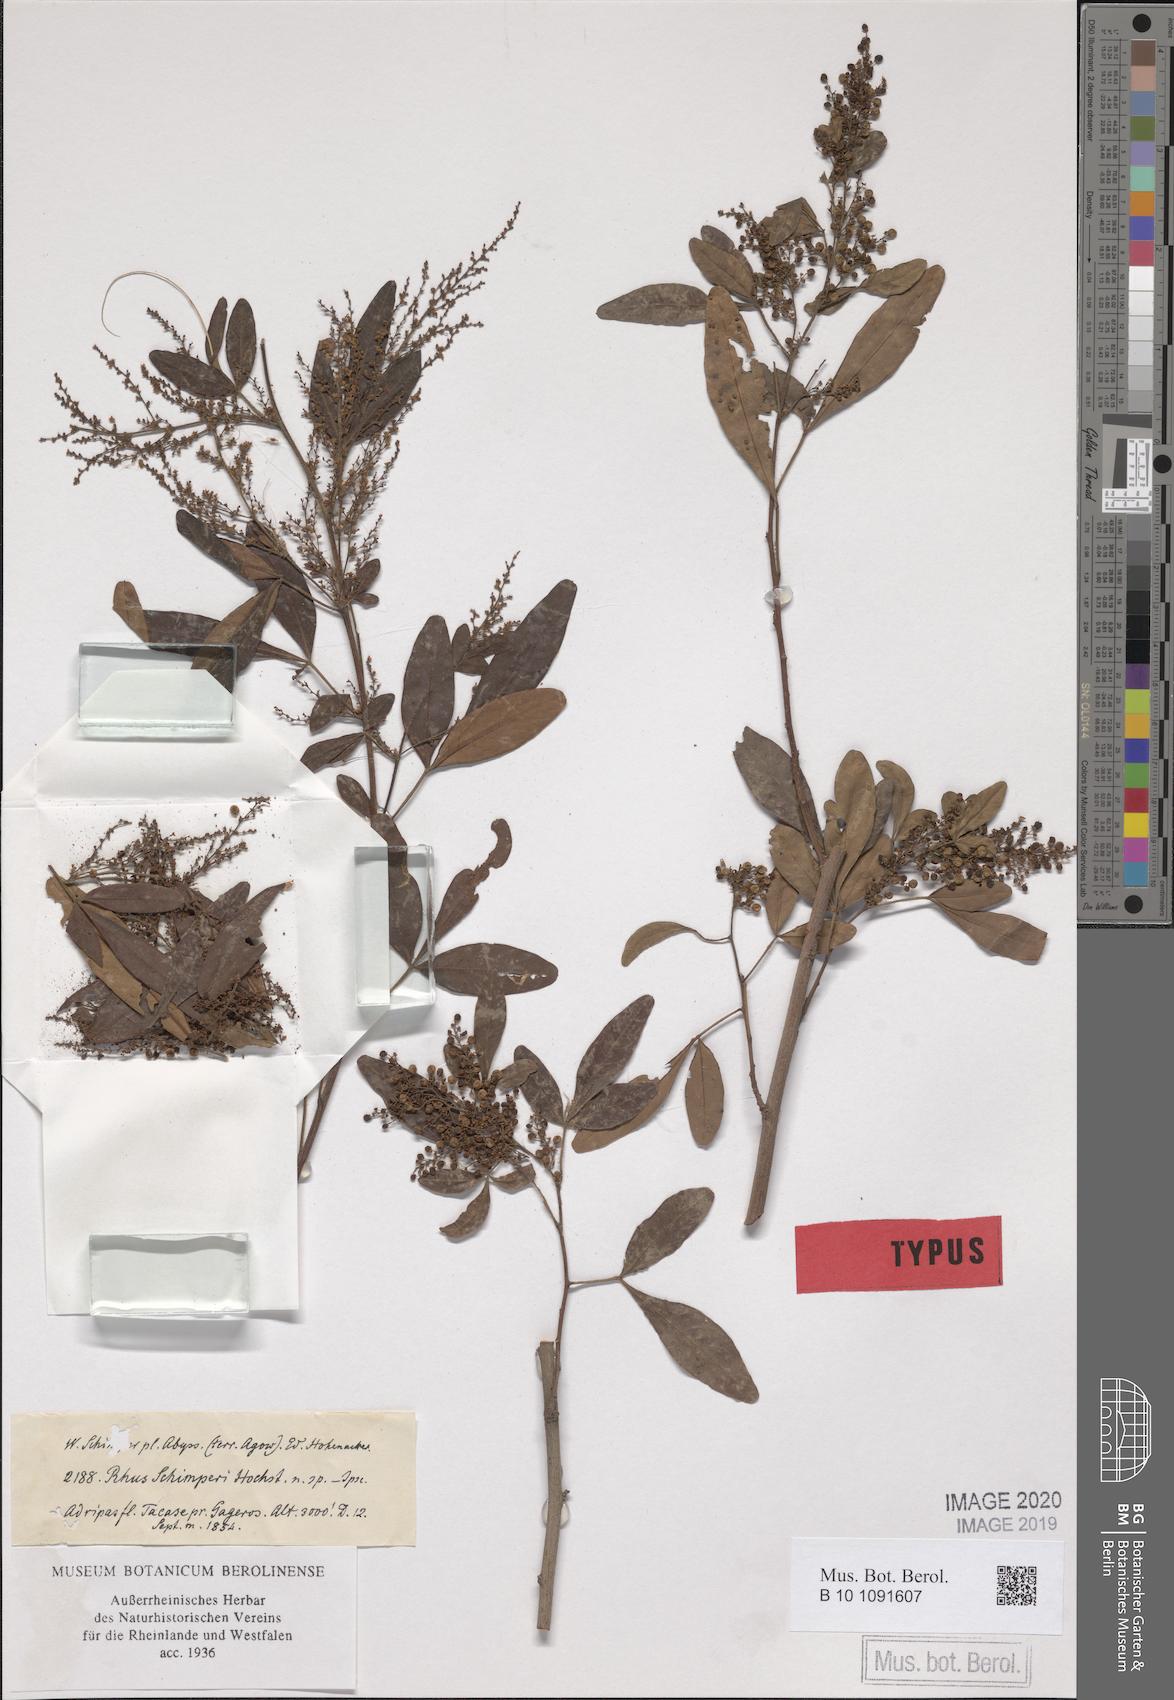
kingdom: Plantae
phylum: Tracheophyta
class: Magnoliopsida
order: Sapindales
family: Anacardiaceae
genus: Searsia
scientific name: Searsia quartiniana
